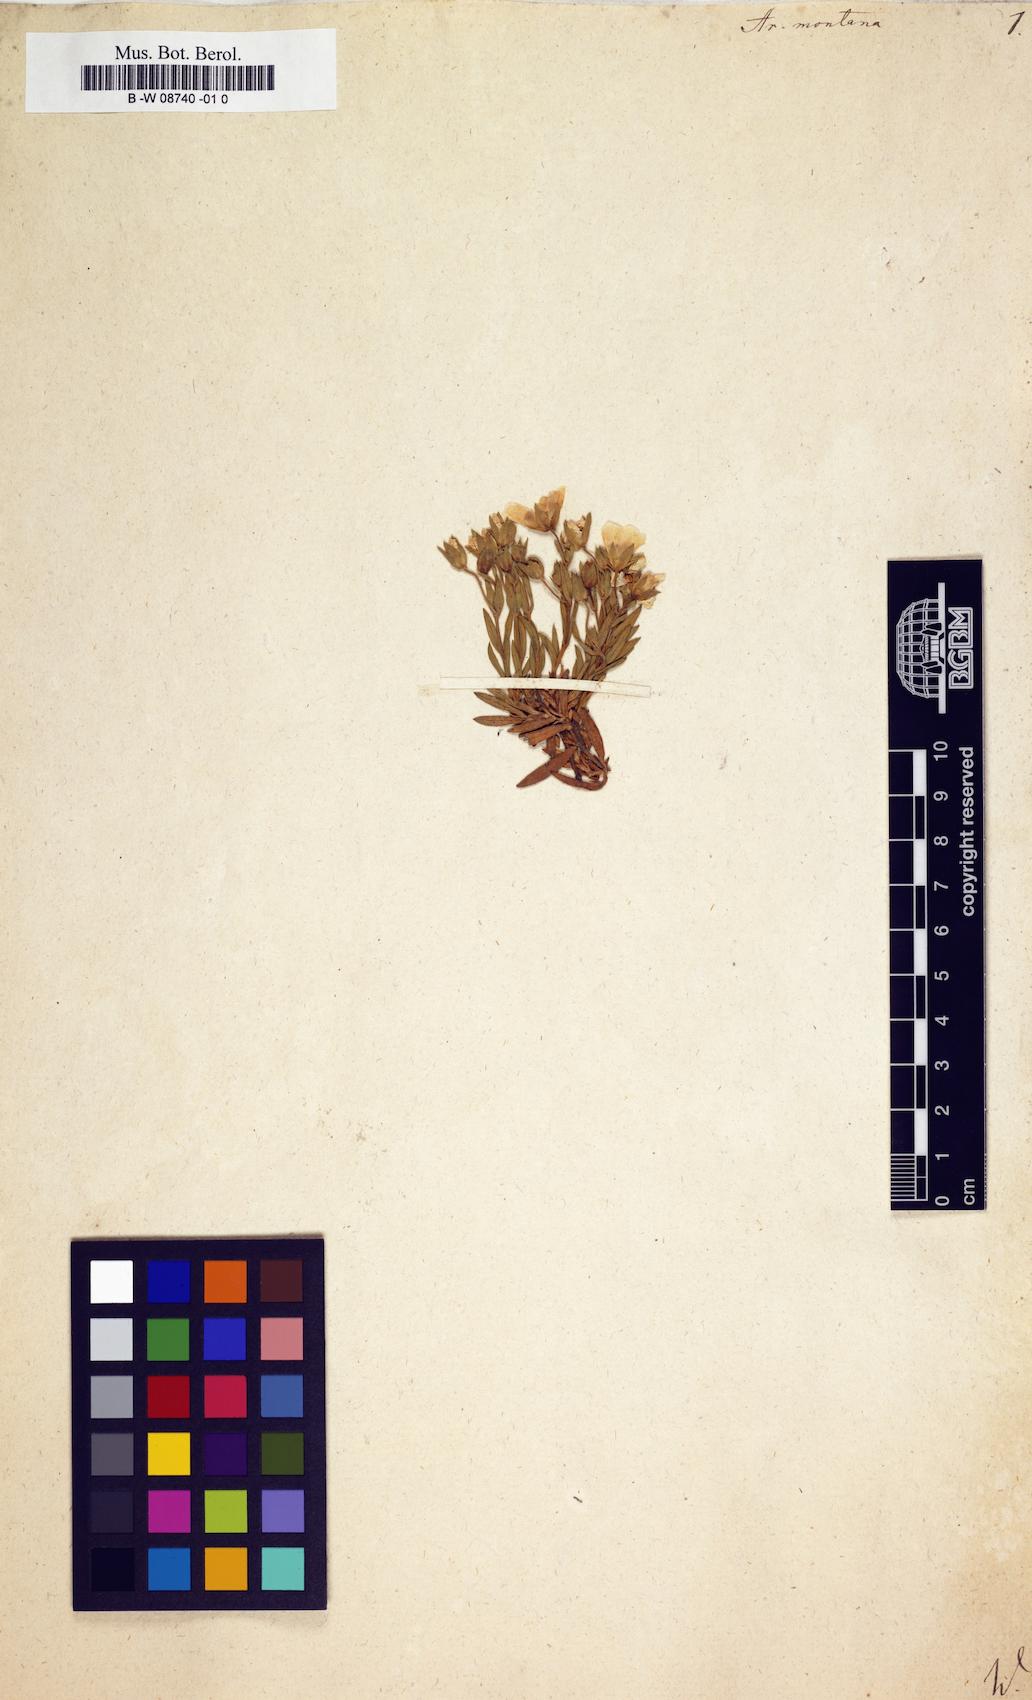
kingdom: Plantae
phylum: Tracheophyta
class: Magnoliopsida
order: Caryophyllales
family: Caryophyllaceae
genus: Arenaria
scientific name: Arenaria montana
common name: Mountain sandwort
